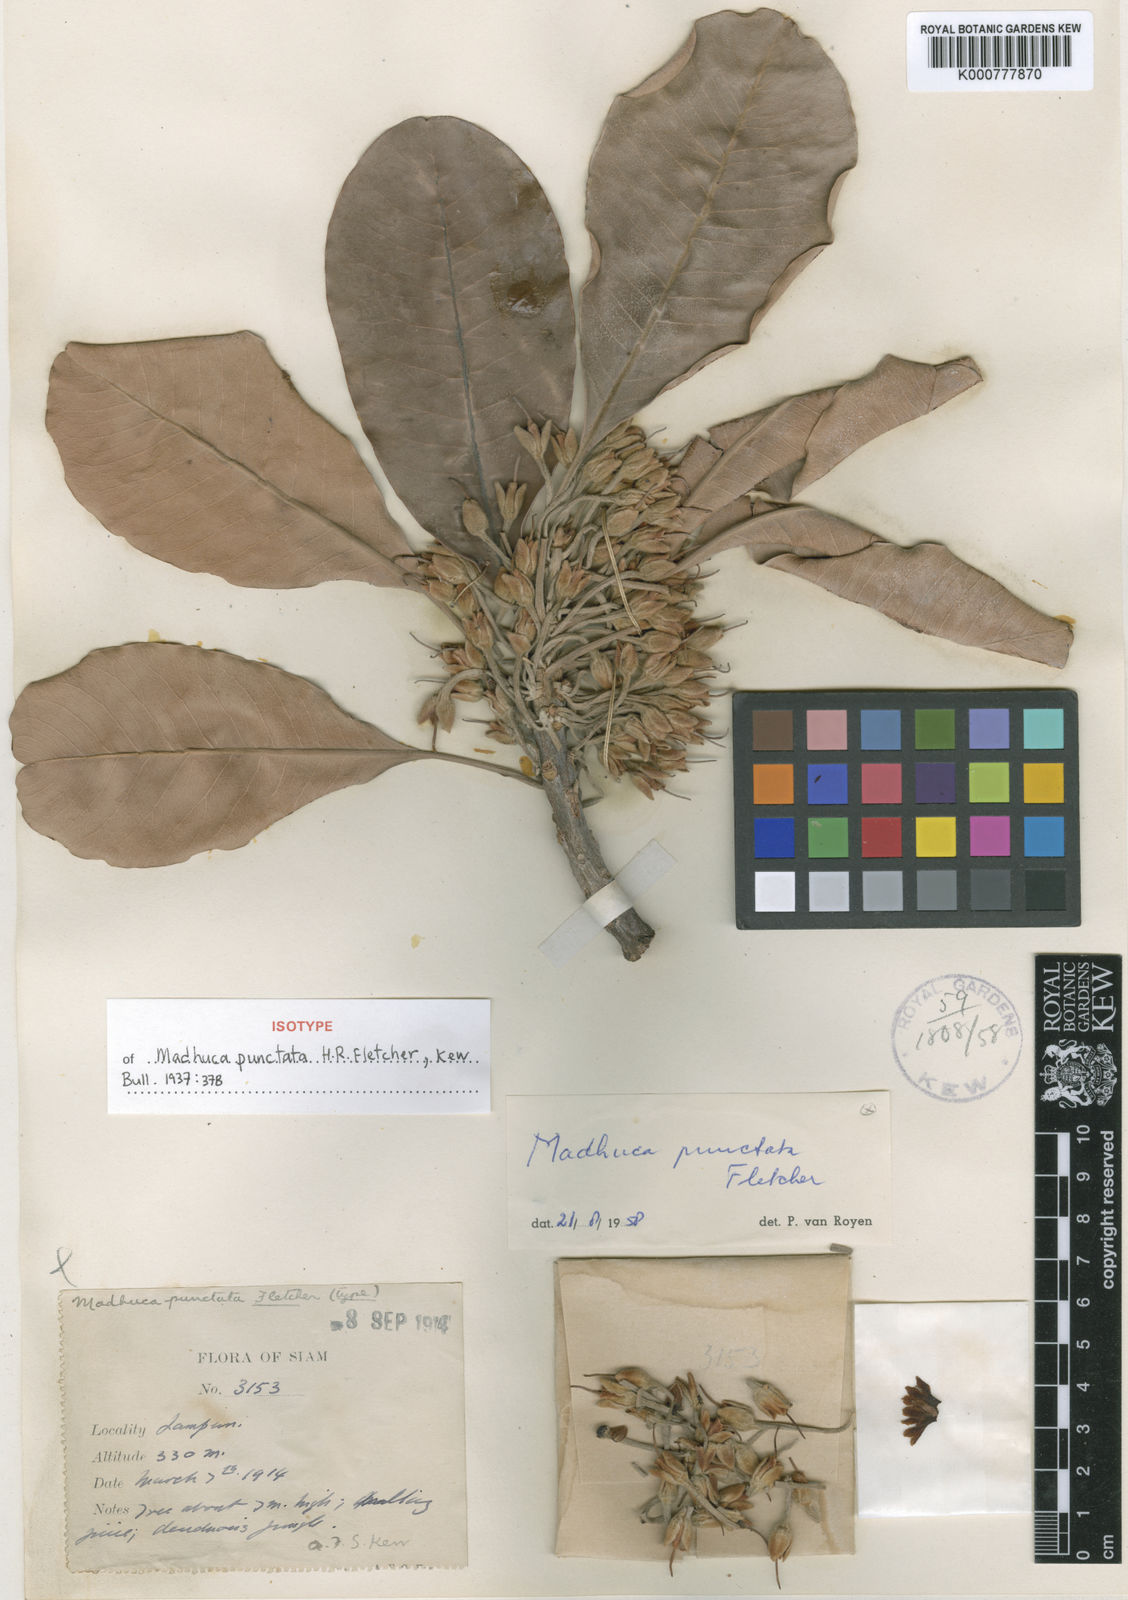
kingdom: Plantae
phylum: Tracheophyta
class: Magnoliopsida
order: Ericales
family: Sapotaceae
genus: Madhuca
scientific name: Madhuca punctata
